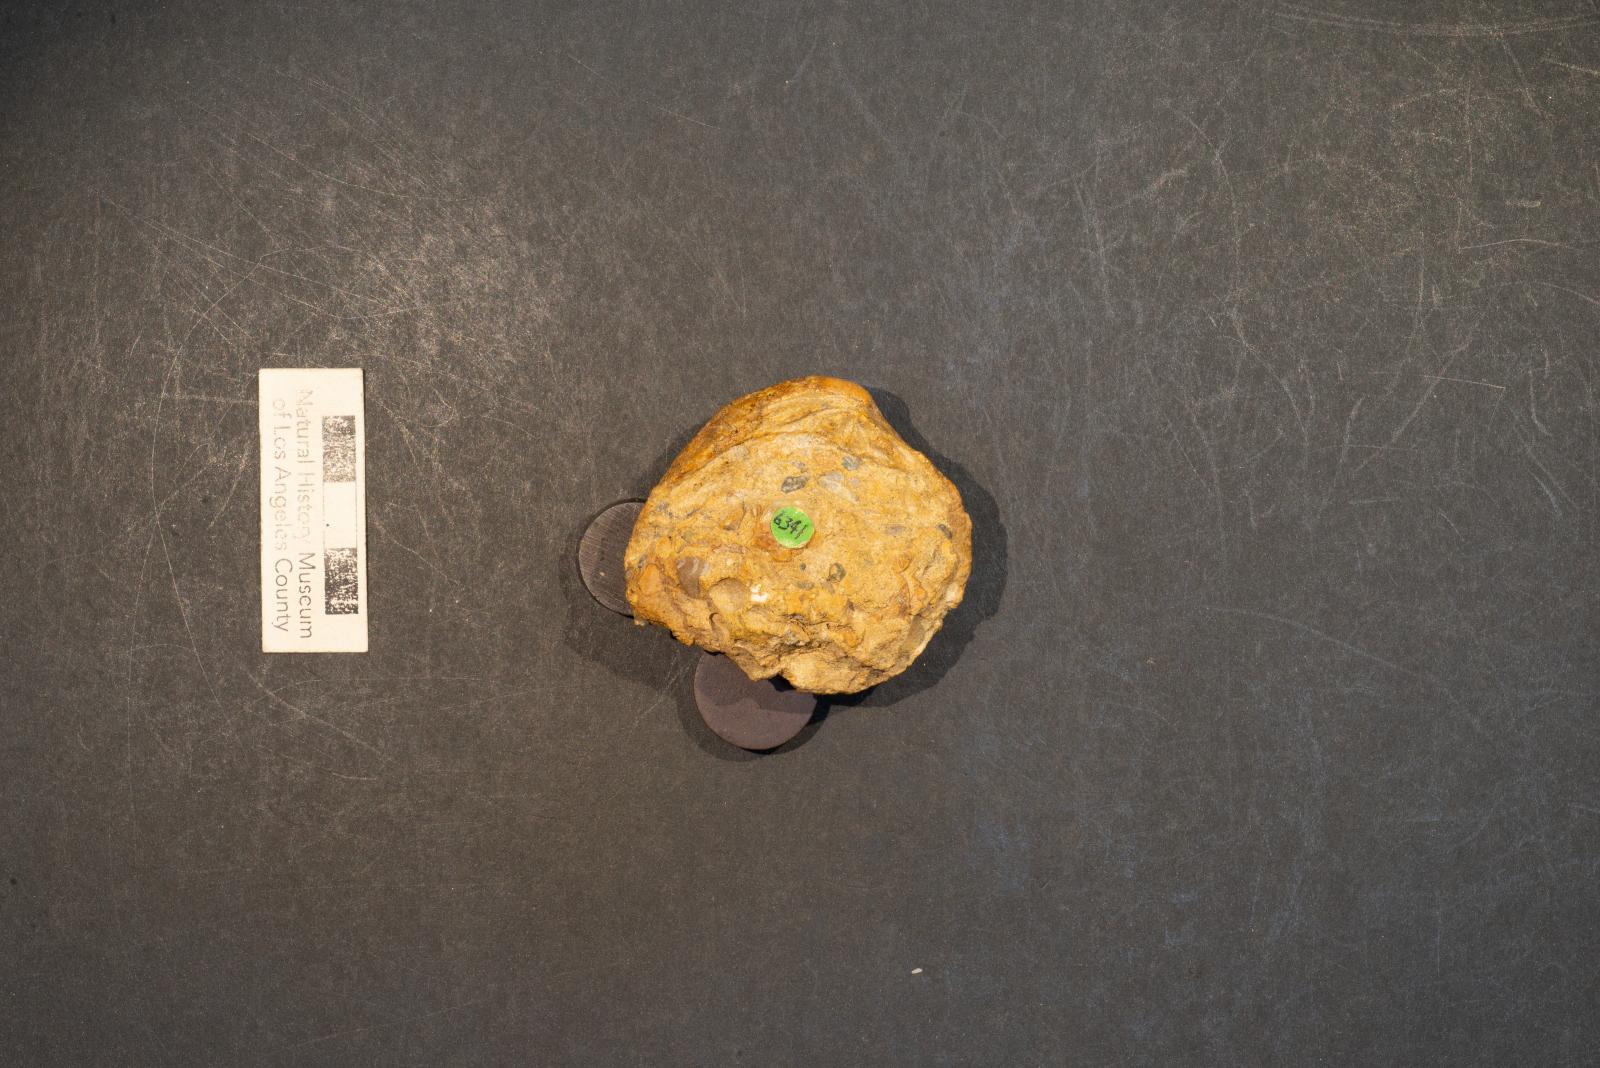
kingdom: Animalia
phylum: Mollusca
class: Bivalvia
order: Venerida
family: Veneridae
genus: Loxo
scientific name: Loxo quintense
